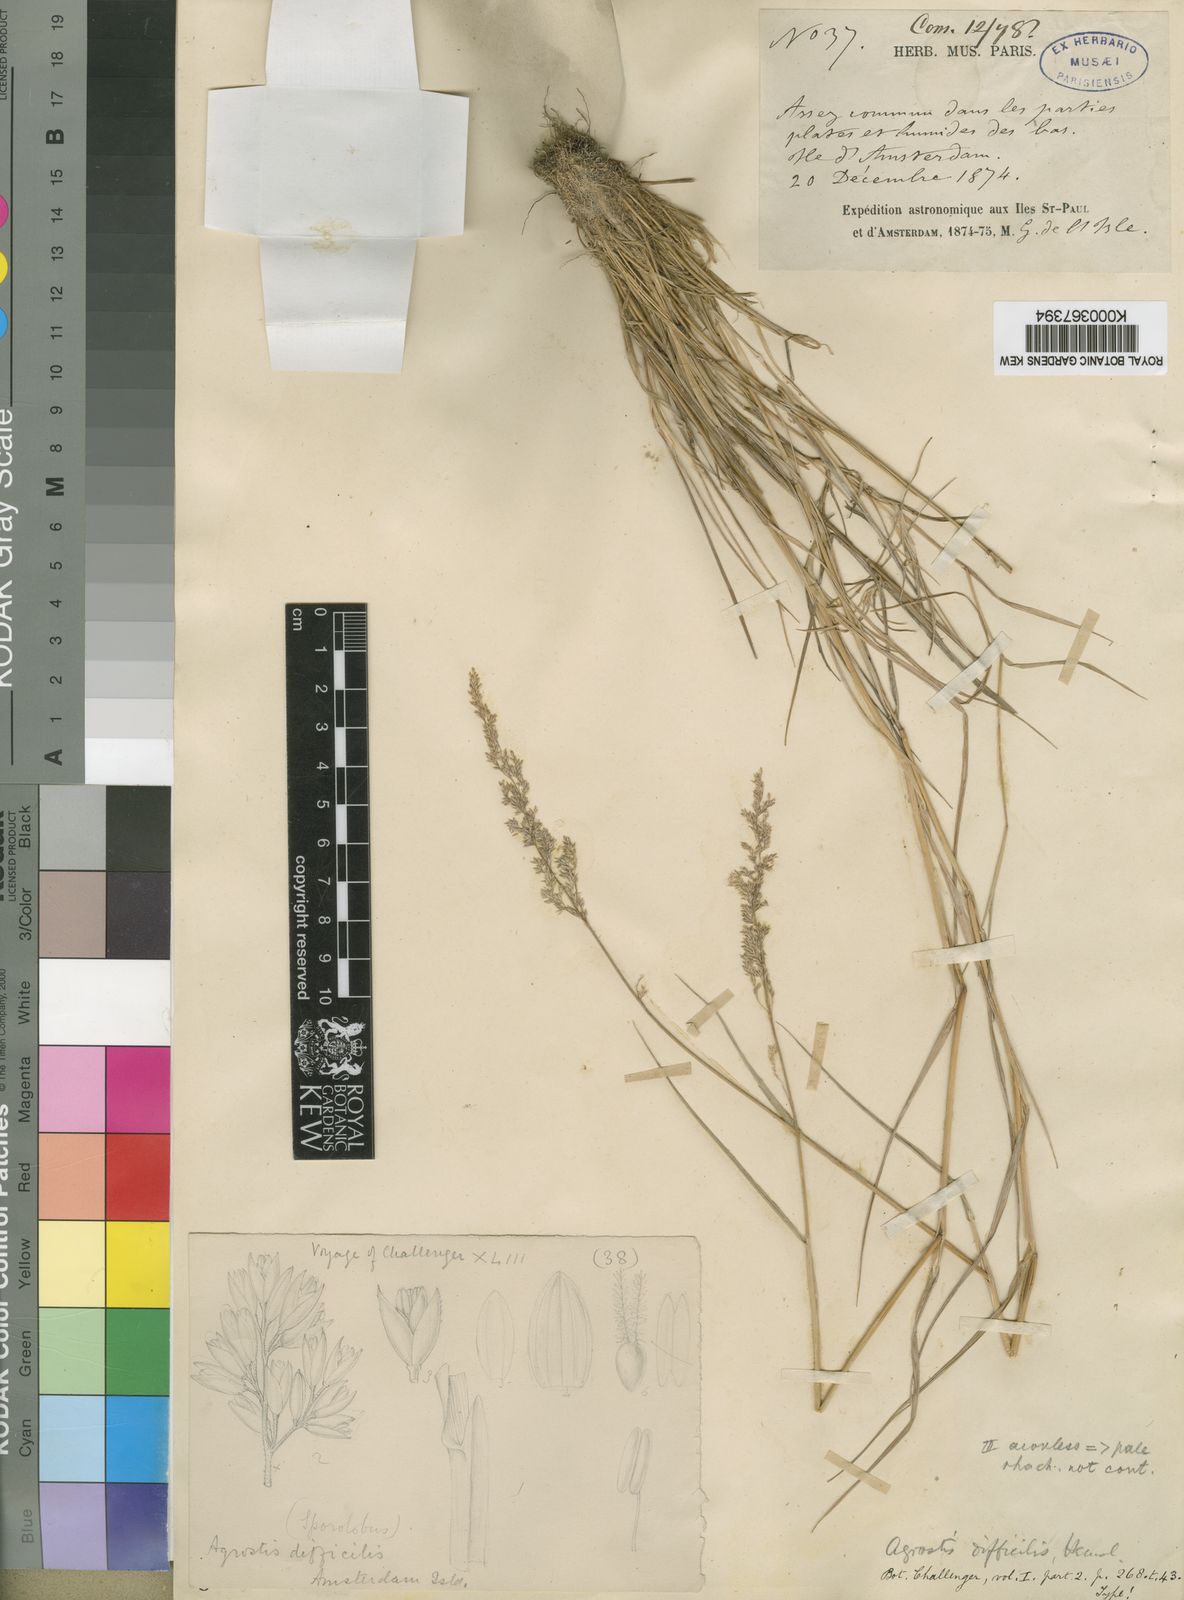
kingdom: Plantae
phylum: Tracheophyta
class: Liliopsida
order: Poales
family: Poaceae
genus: Agrostis
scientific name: Agrostis stolonifera
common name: Creeping bentgrass
